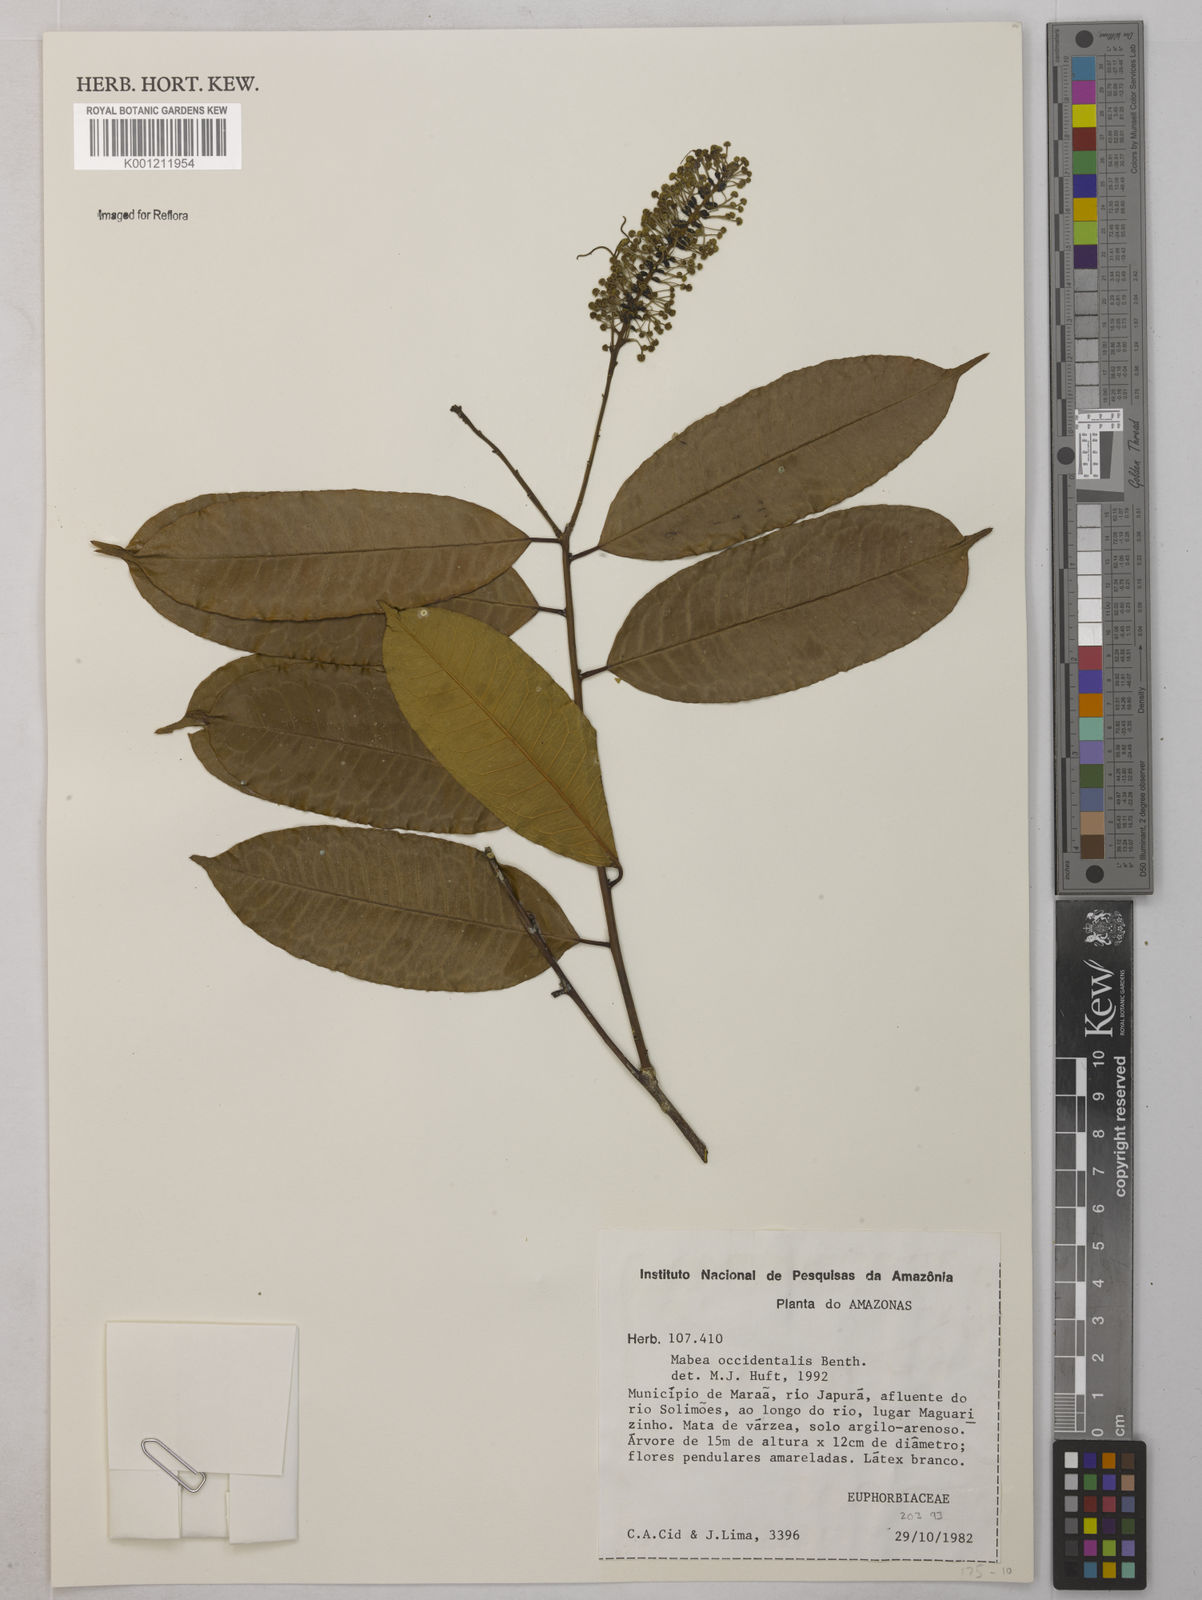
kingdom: Plantae
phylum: Tracheophyta
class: Magnoliopsida
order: Malpighiales
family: Euphorbiaceae
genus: Mabea
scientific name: Mabea
